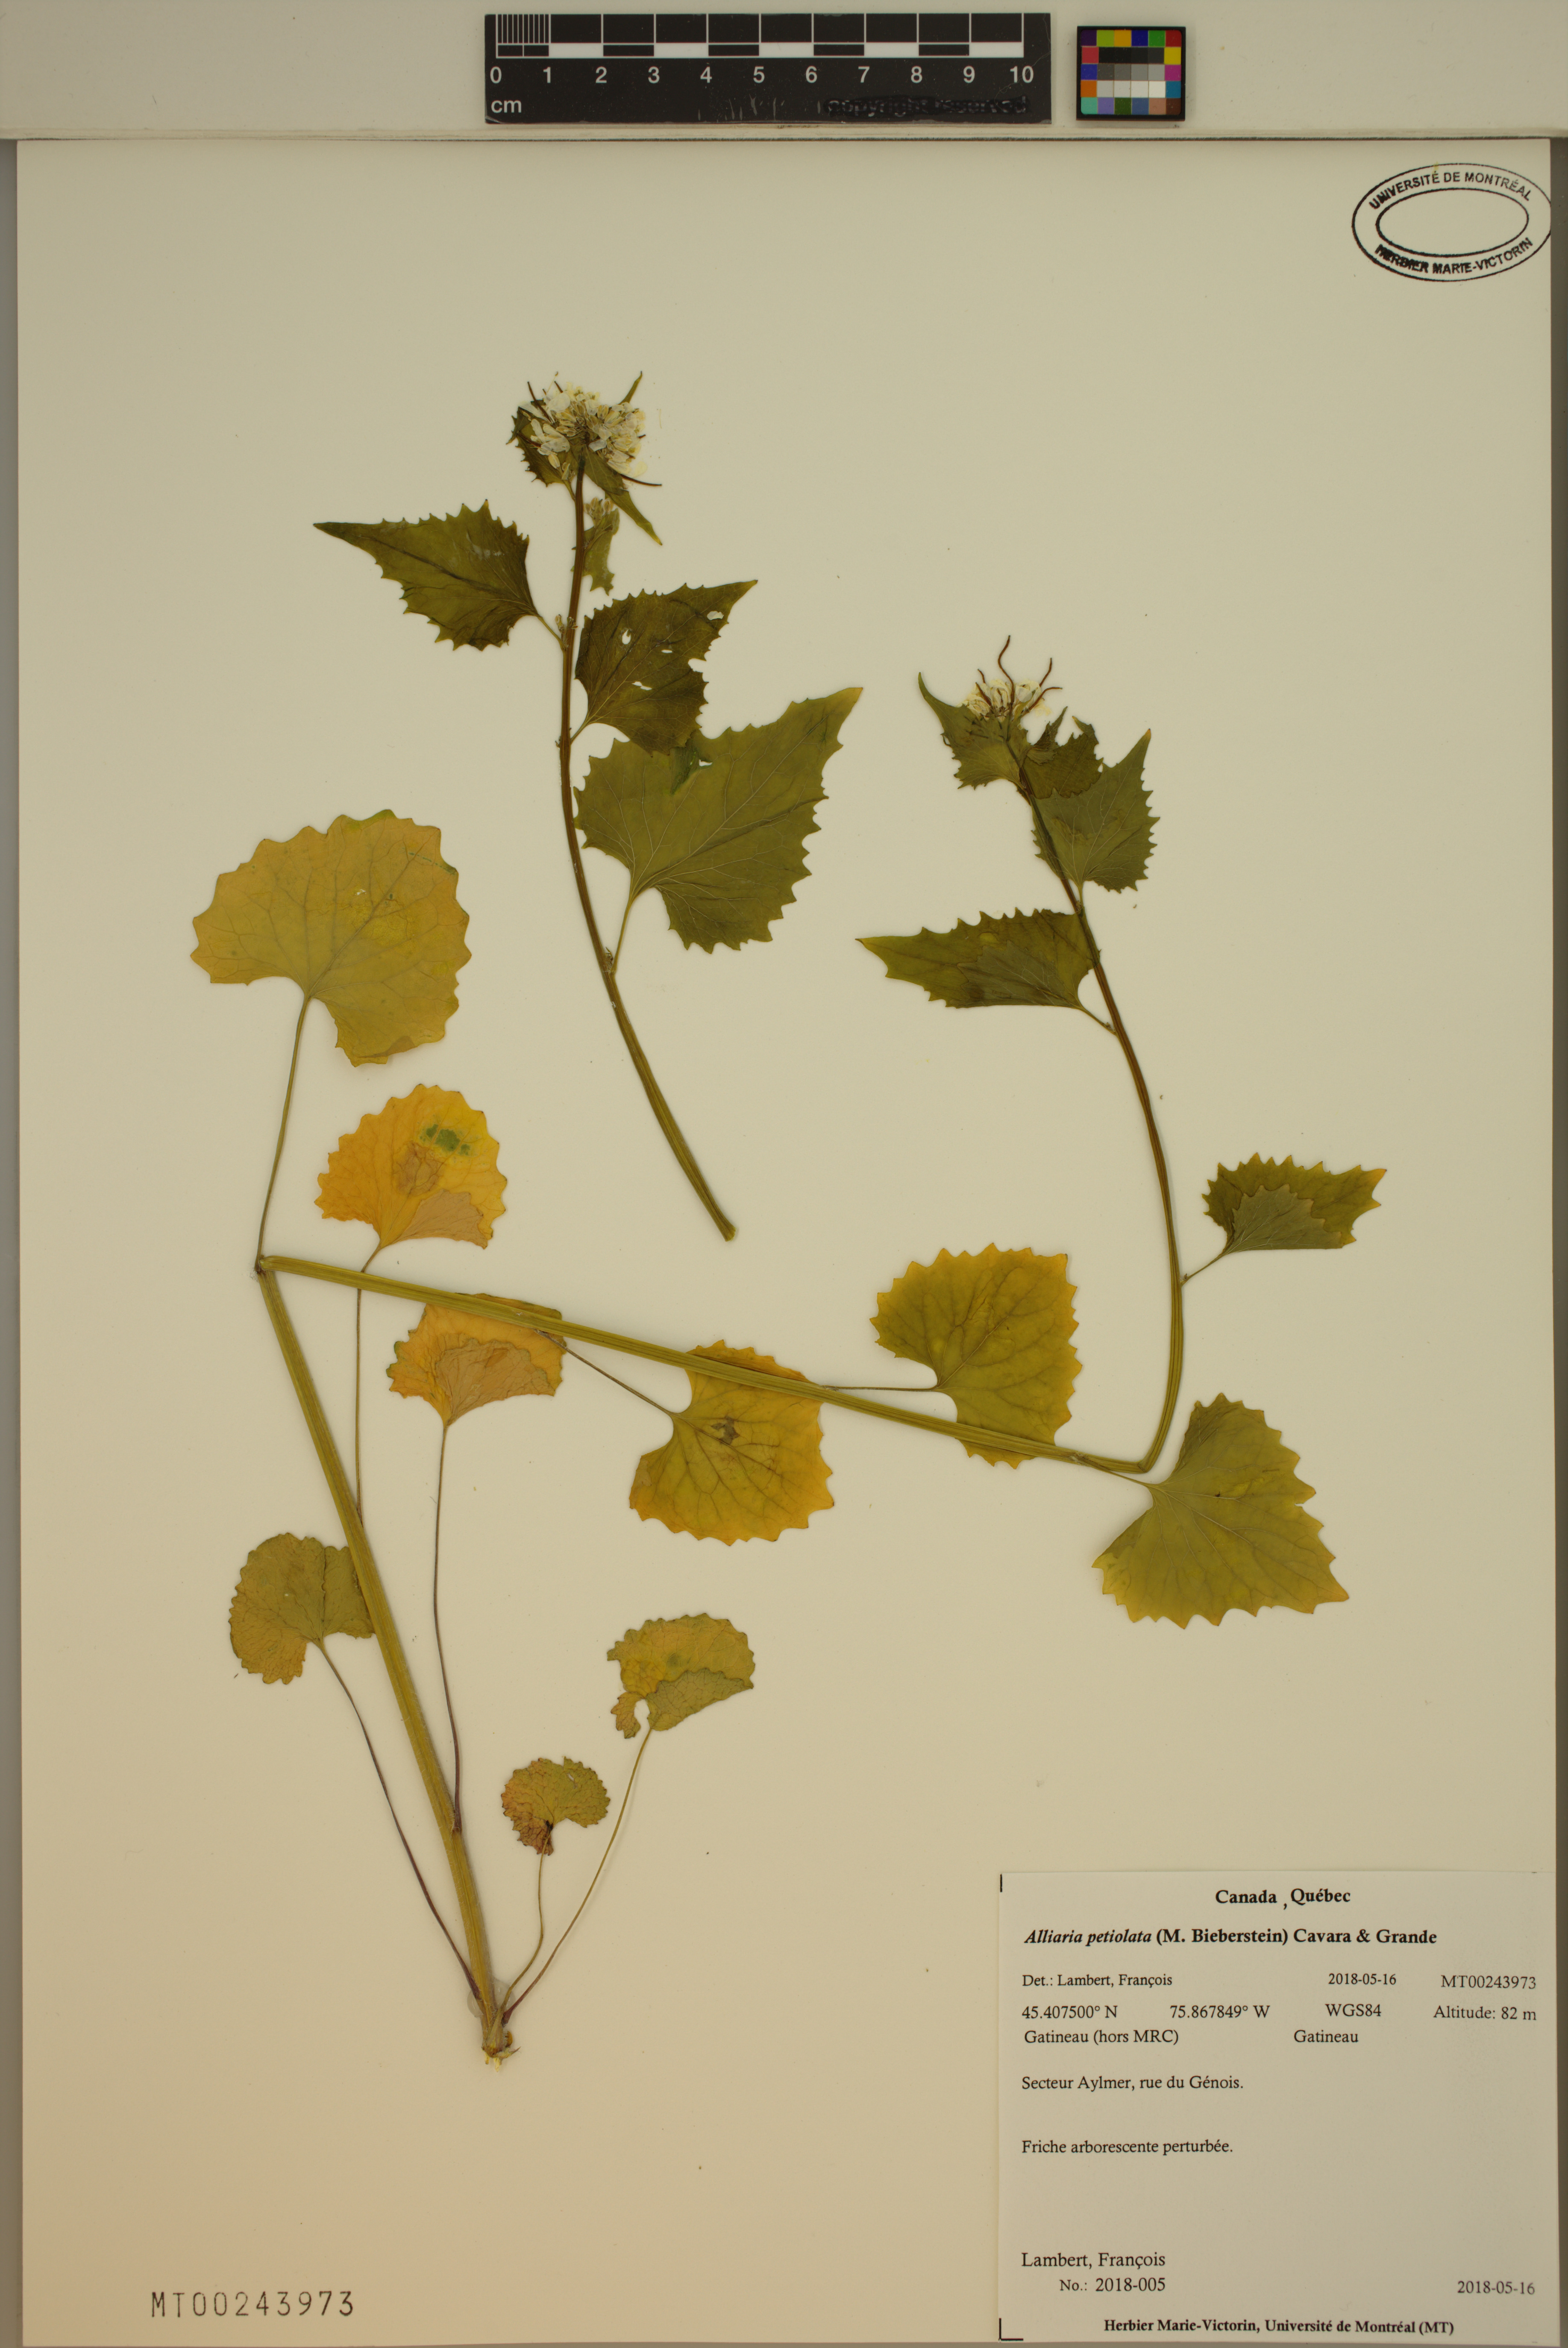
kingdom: Plantae
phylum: Tracheophyta
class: Magnoliopsida
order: Brassicales
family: Brassicaceae
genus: Alliaria
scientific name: Alliaria petiolata
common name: Garlic mustard
